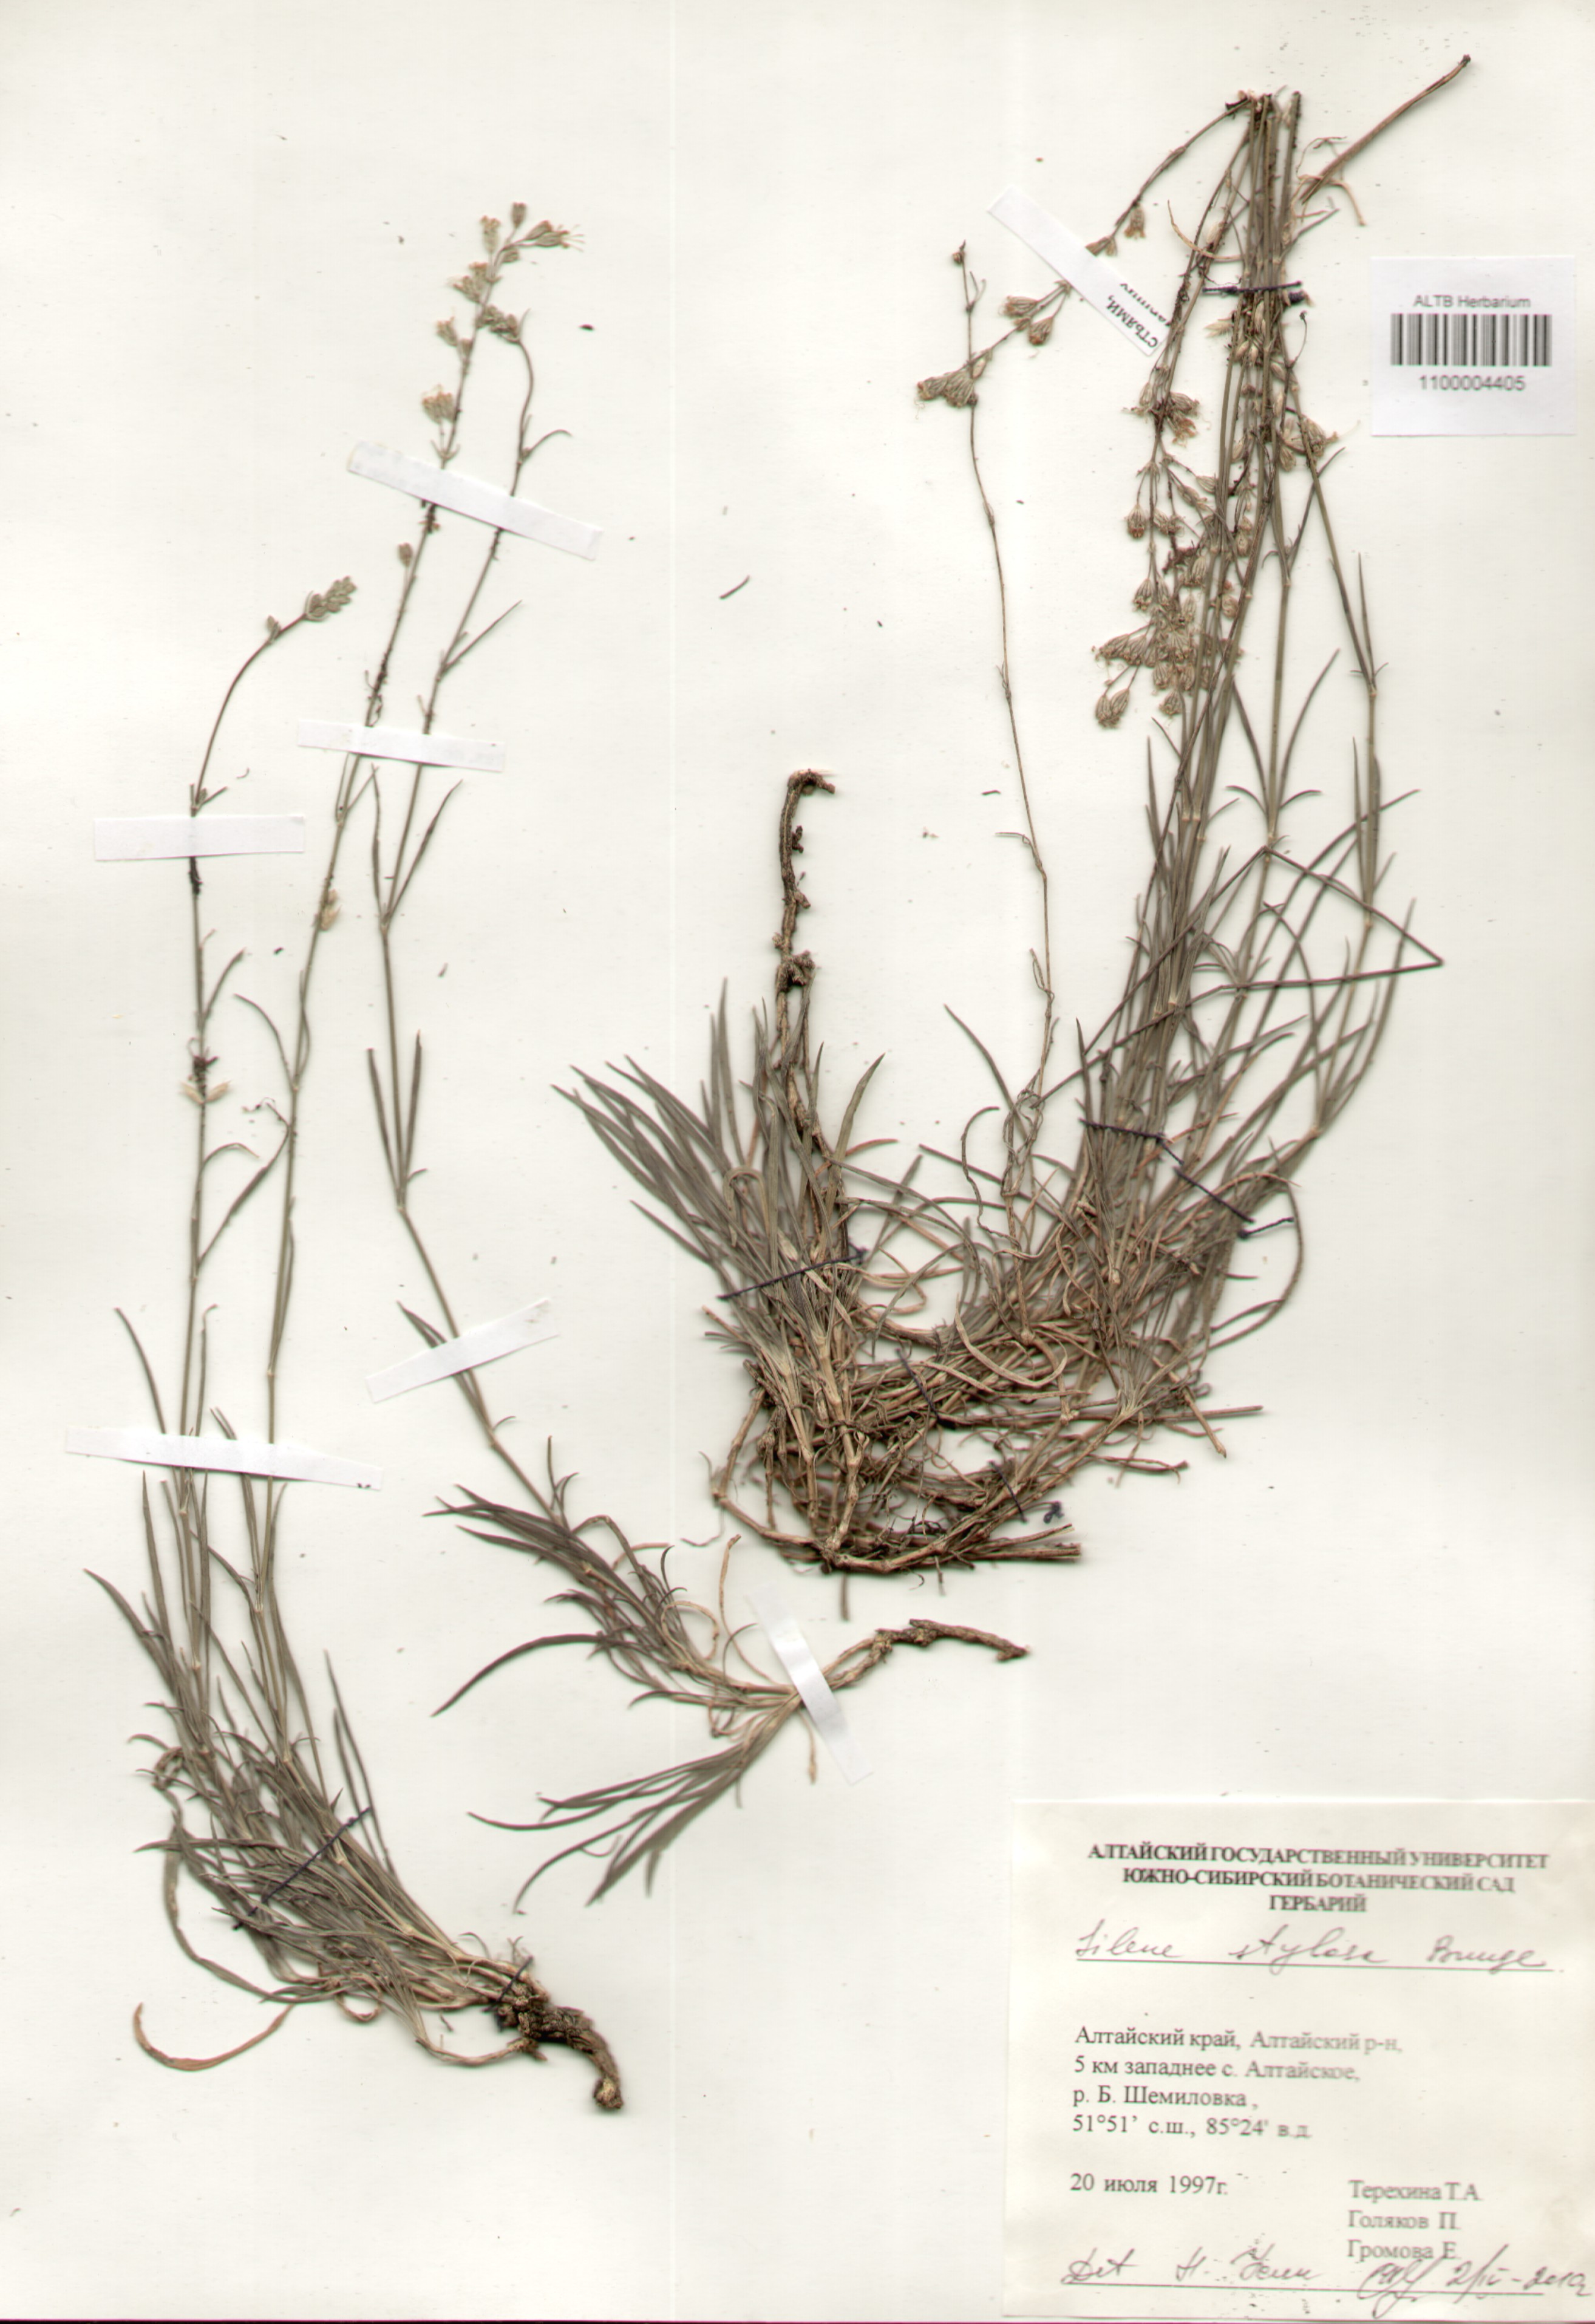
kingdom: Plantae
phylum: Tracheophyta
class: Magnoliopsida
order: Caryophyllales
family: Caryophyllaceae
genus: Silene
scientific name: Silene graminifolia
